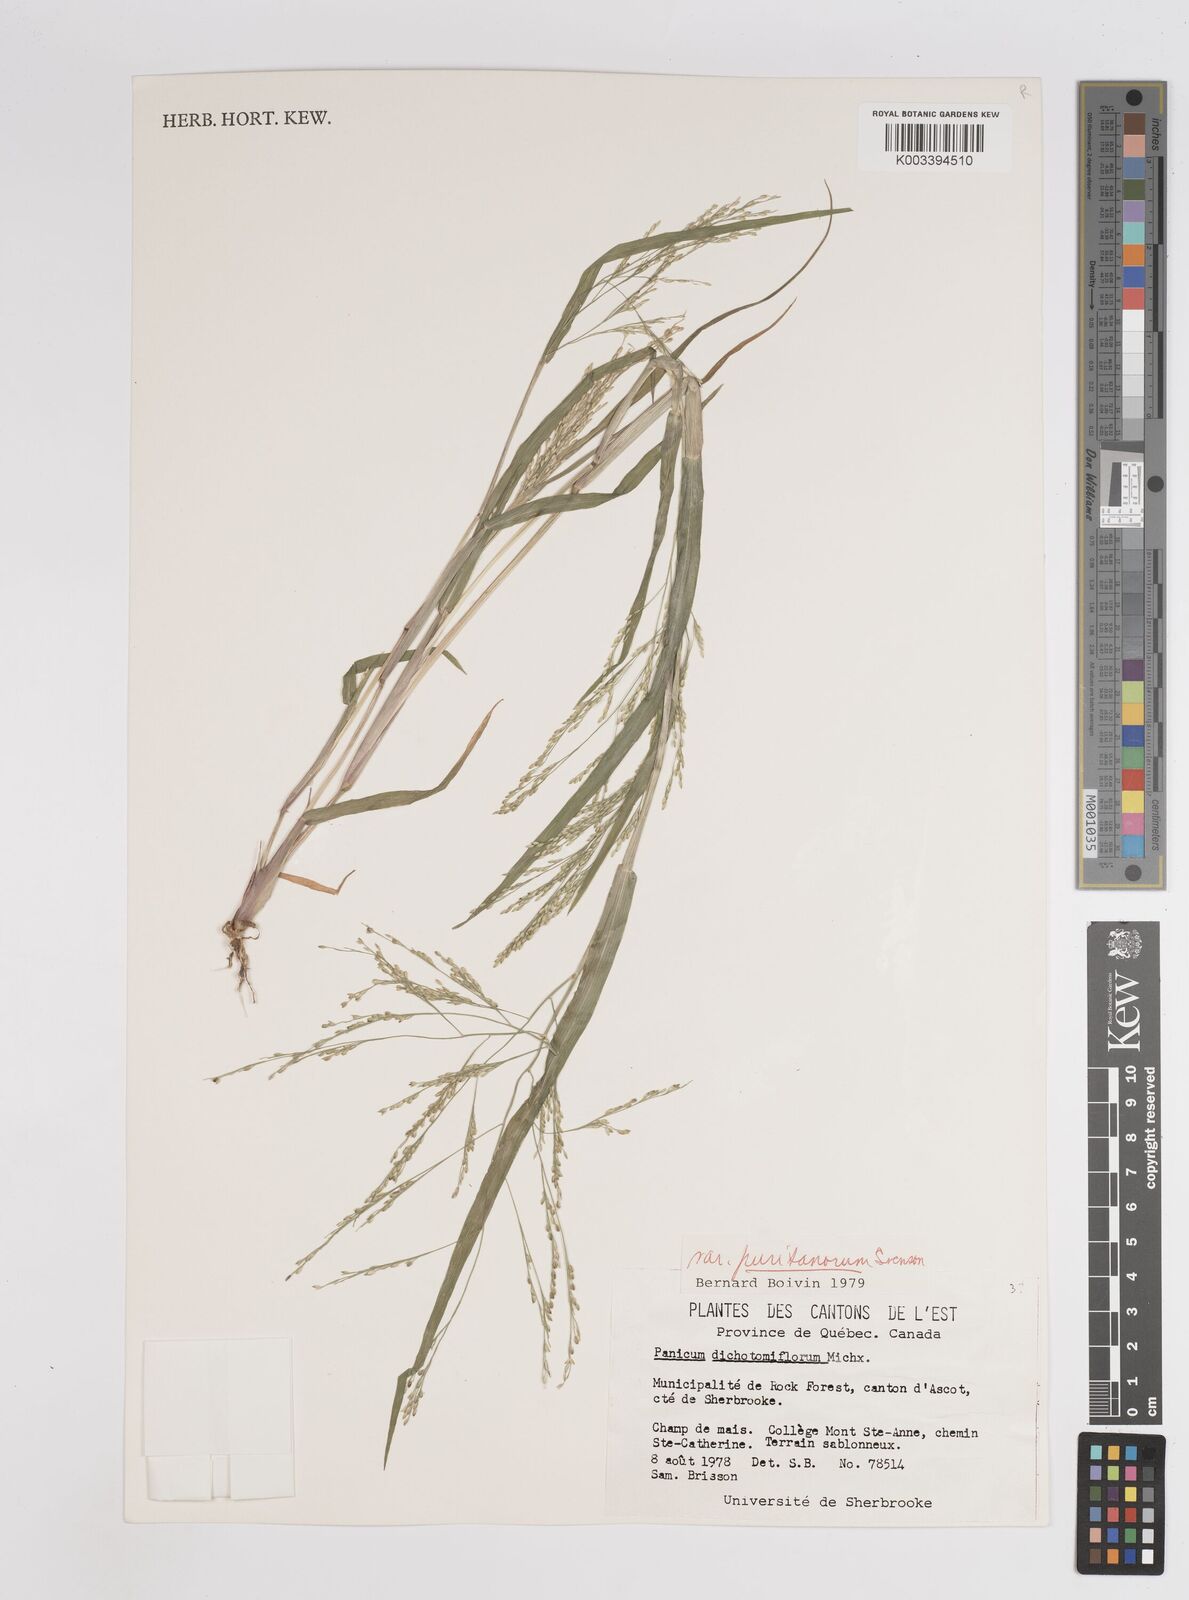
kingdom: Plantae
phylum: Tracheophyta
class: Liliopsida
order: Poales
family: Poaceae
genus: Panicum
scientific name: Panicum dichotomiflorum
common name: Autumn millet
